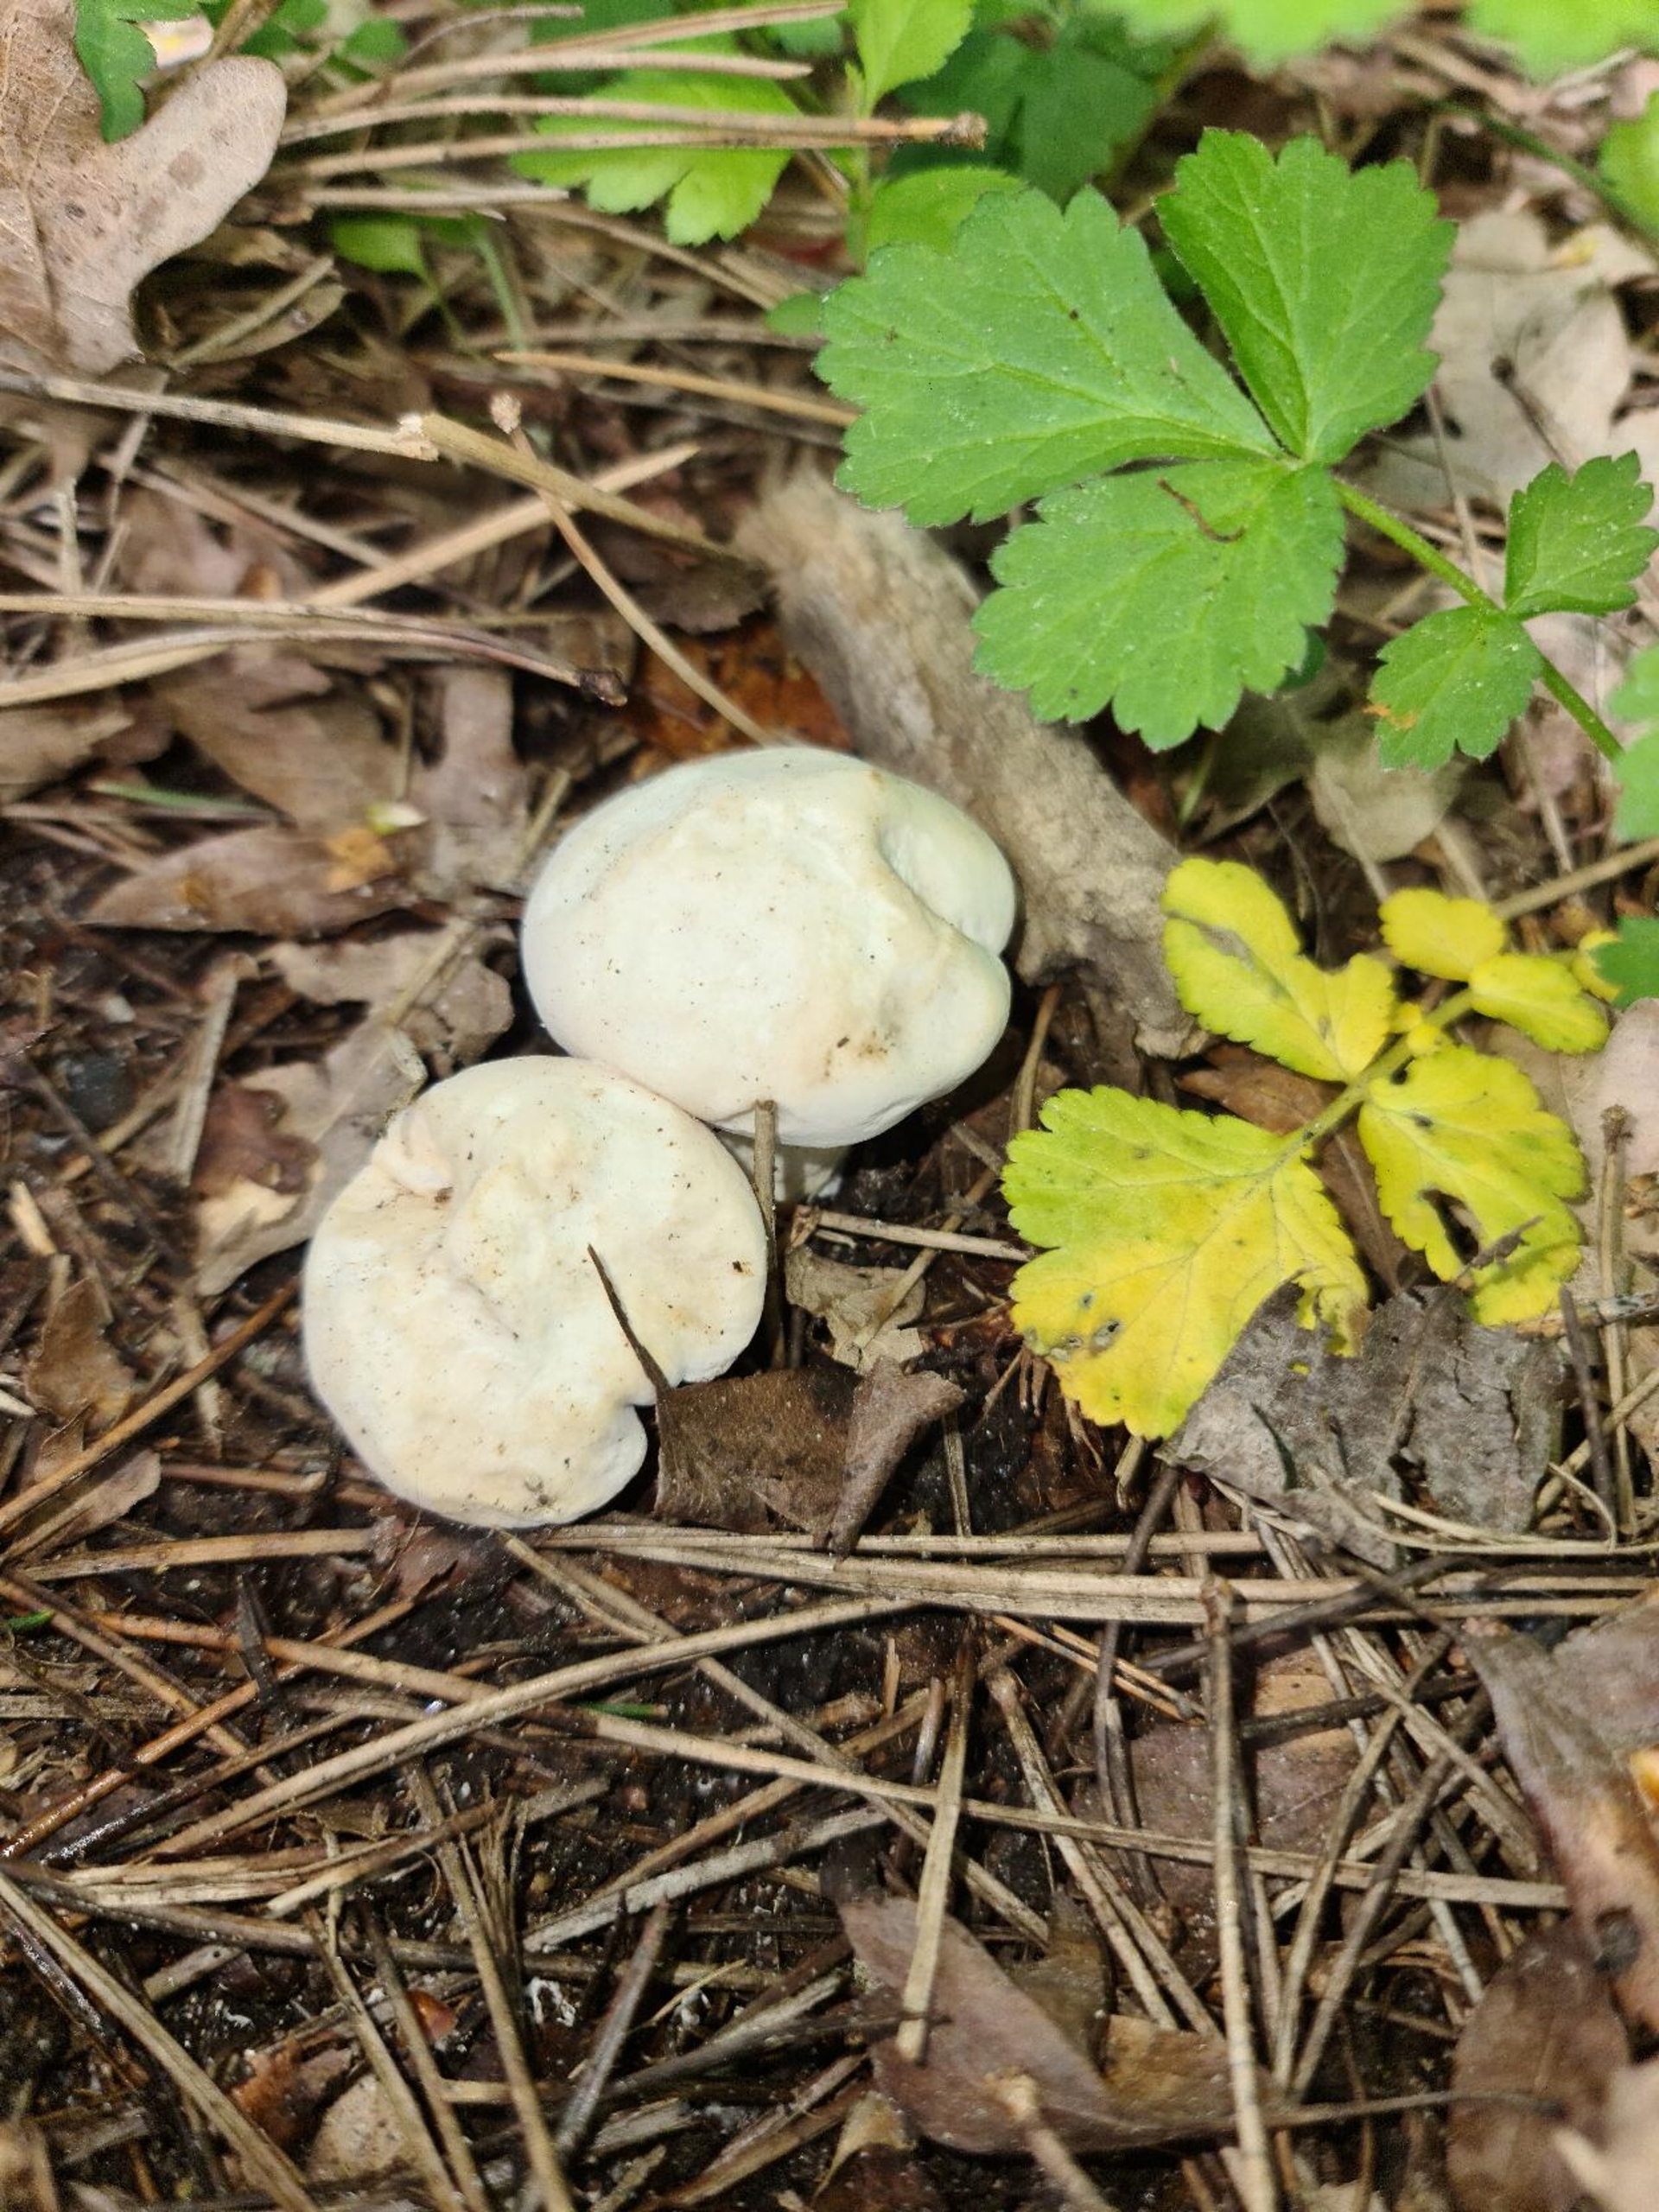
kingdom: Fungi
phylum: Basidiomycota
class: Agaricomycetes
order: Agaricales
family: Lyophyllaceae
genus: Calocybe
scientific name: Calocybe gambosa
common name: Vårmusseron
